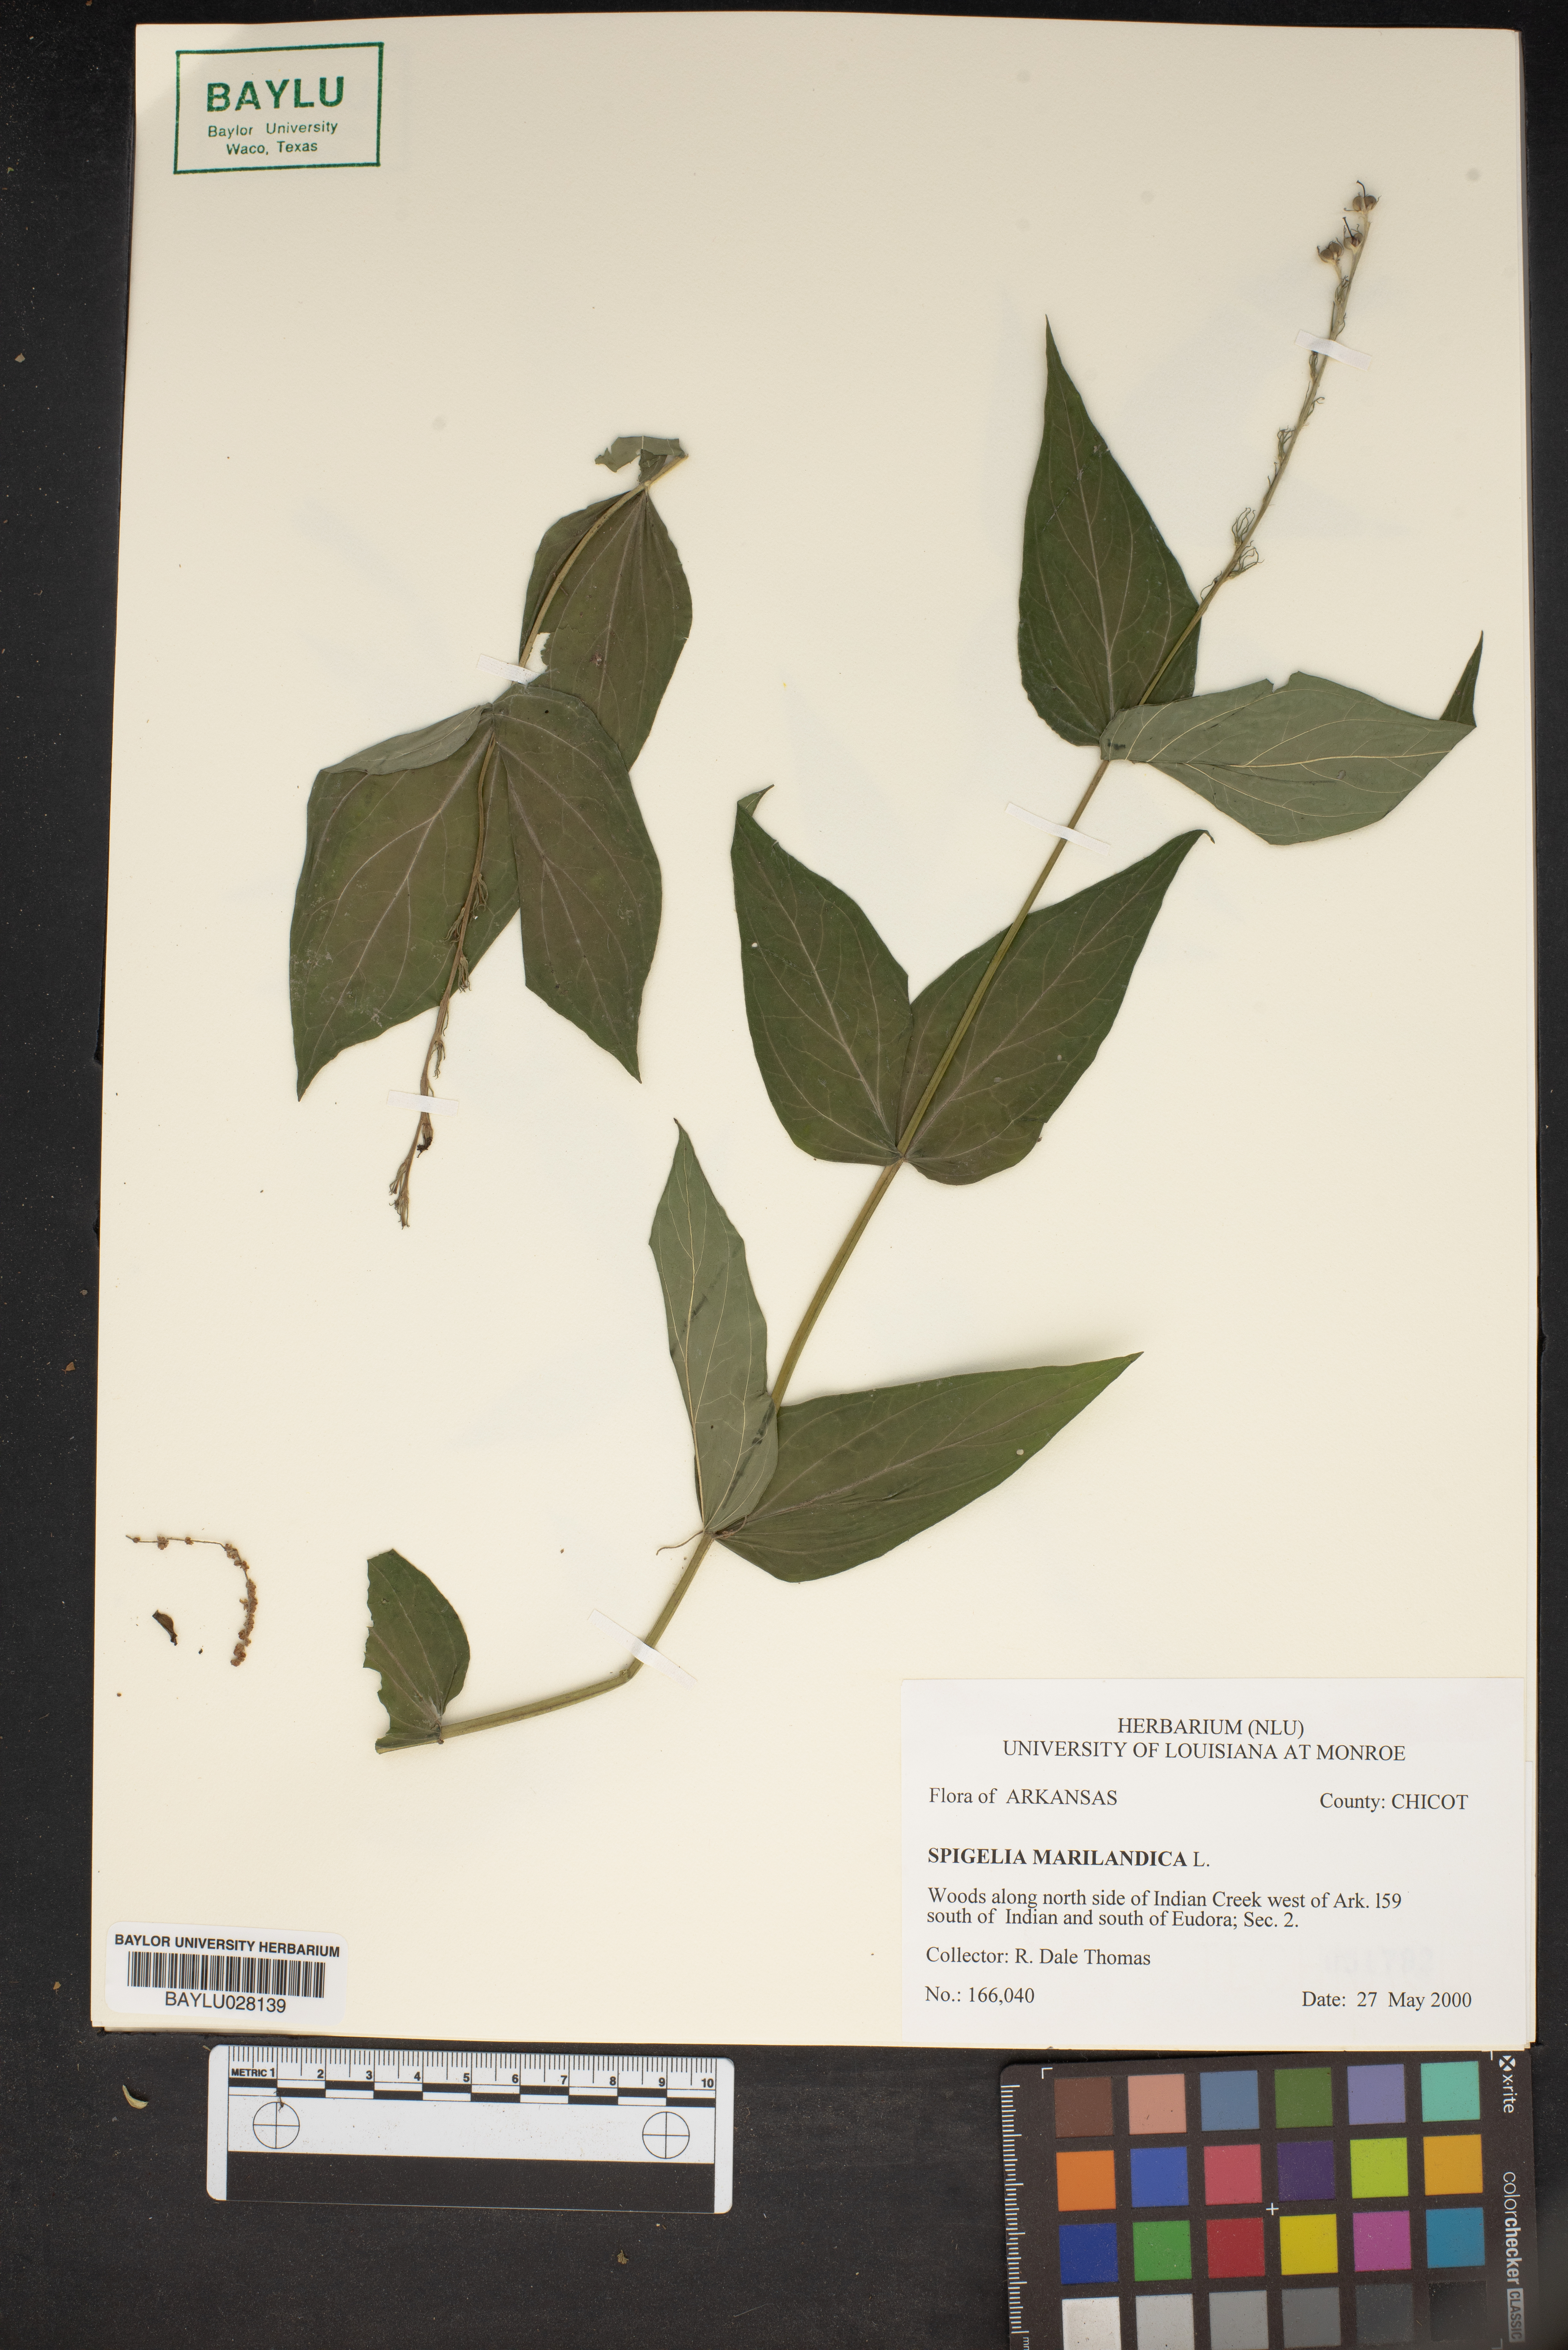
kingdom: Plantae
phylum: Tracheophyta
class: Magnoliopsida
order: Gentianales
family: Loganiaceae
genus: Spigelia
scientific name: Spigelia marilandica
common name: Indian-pink
